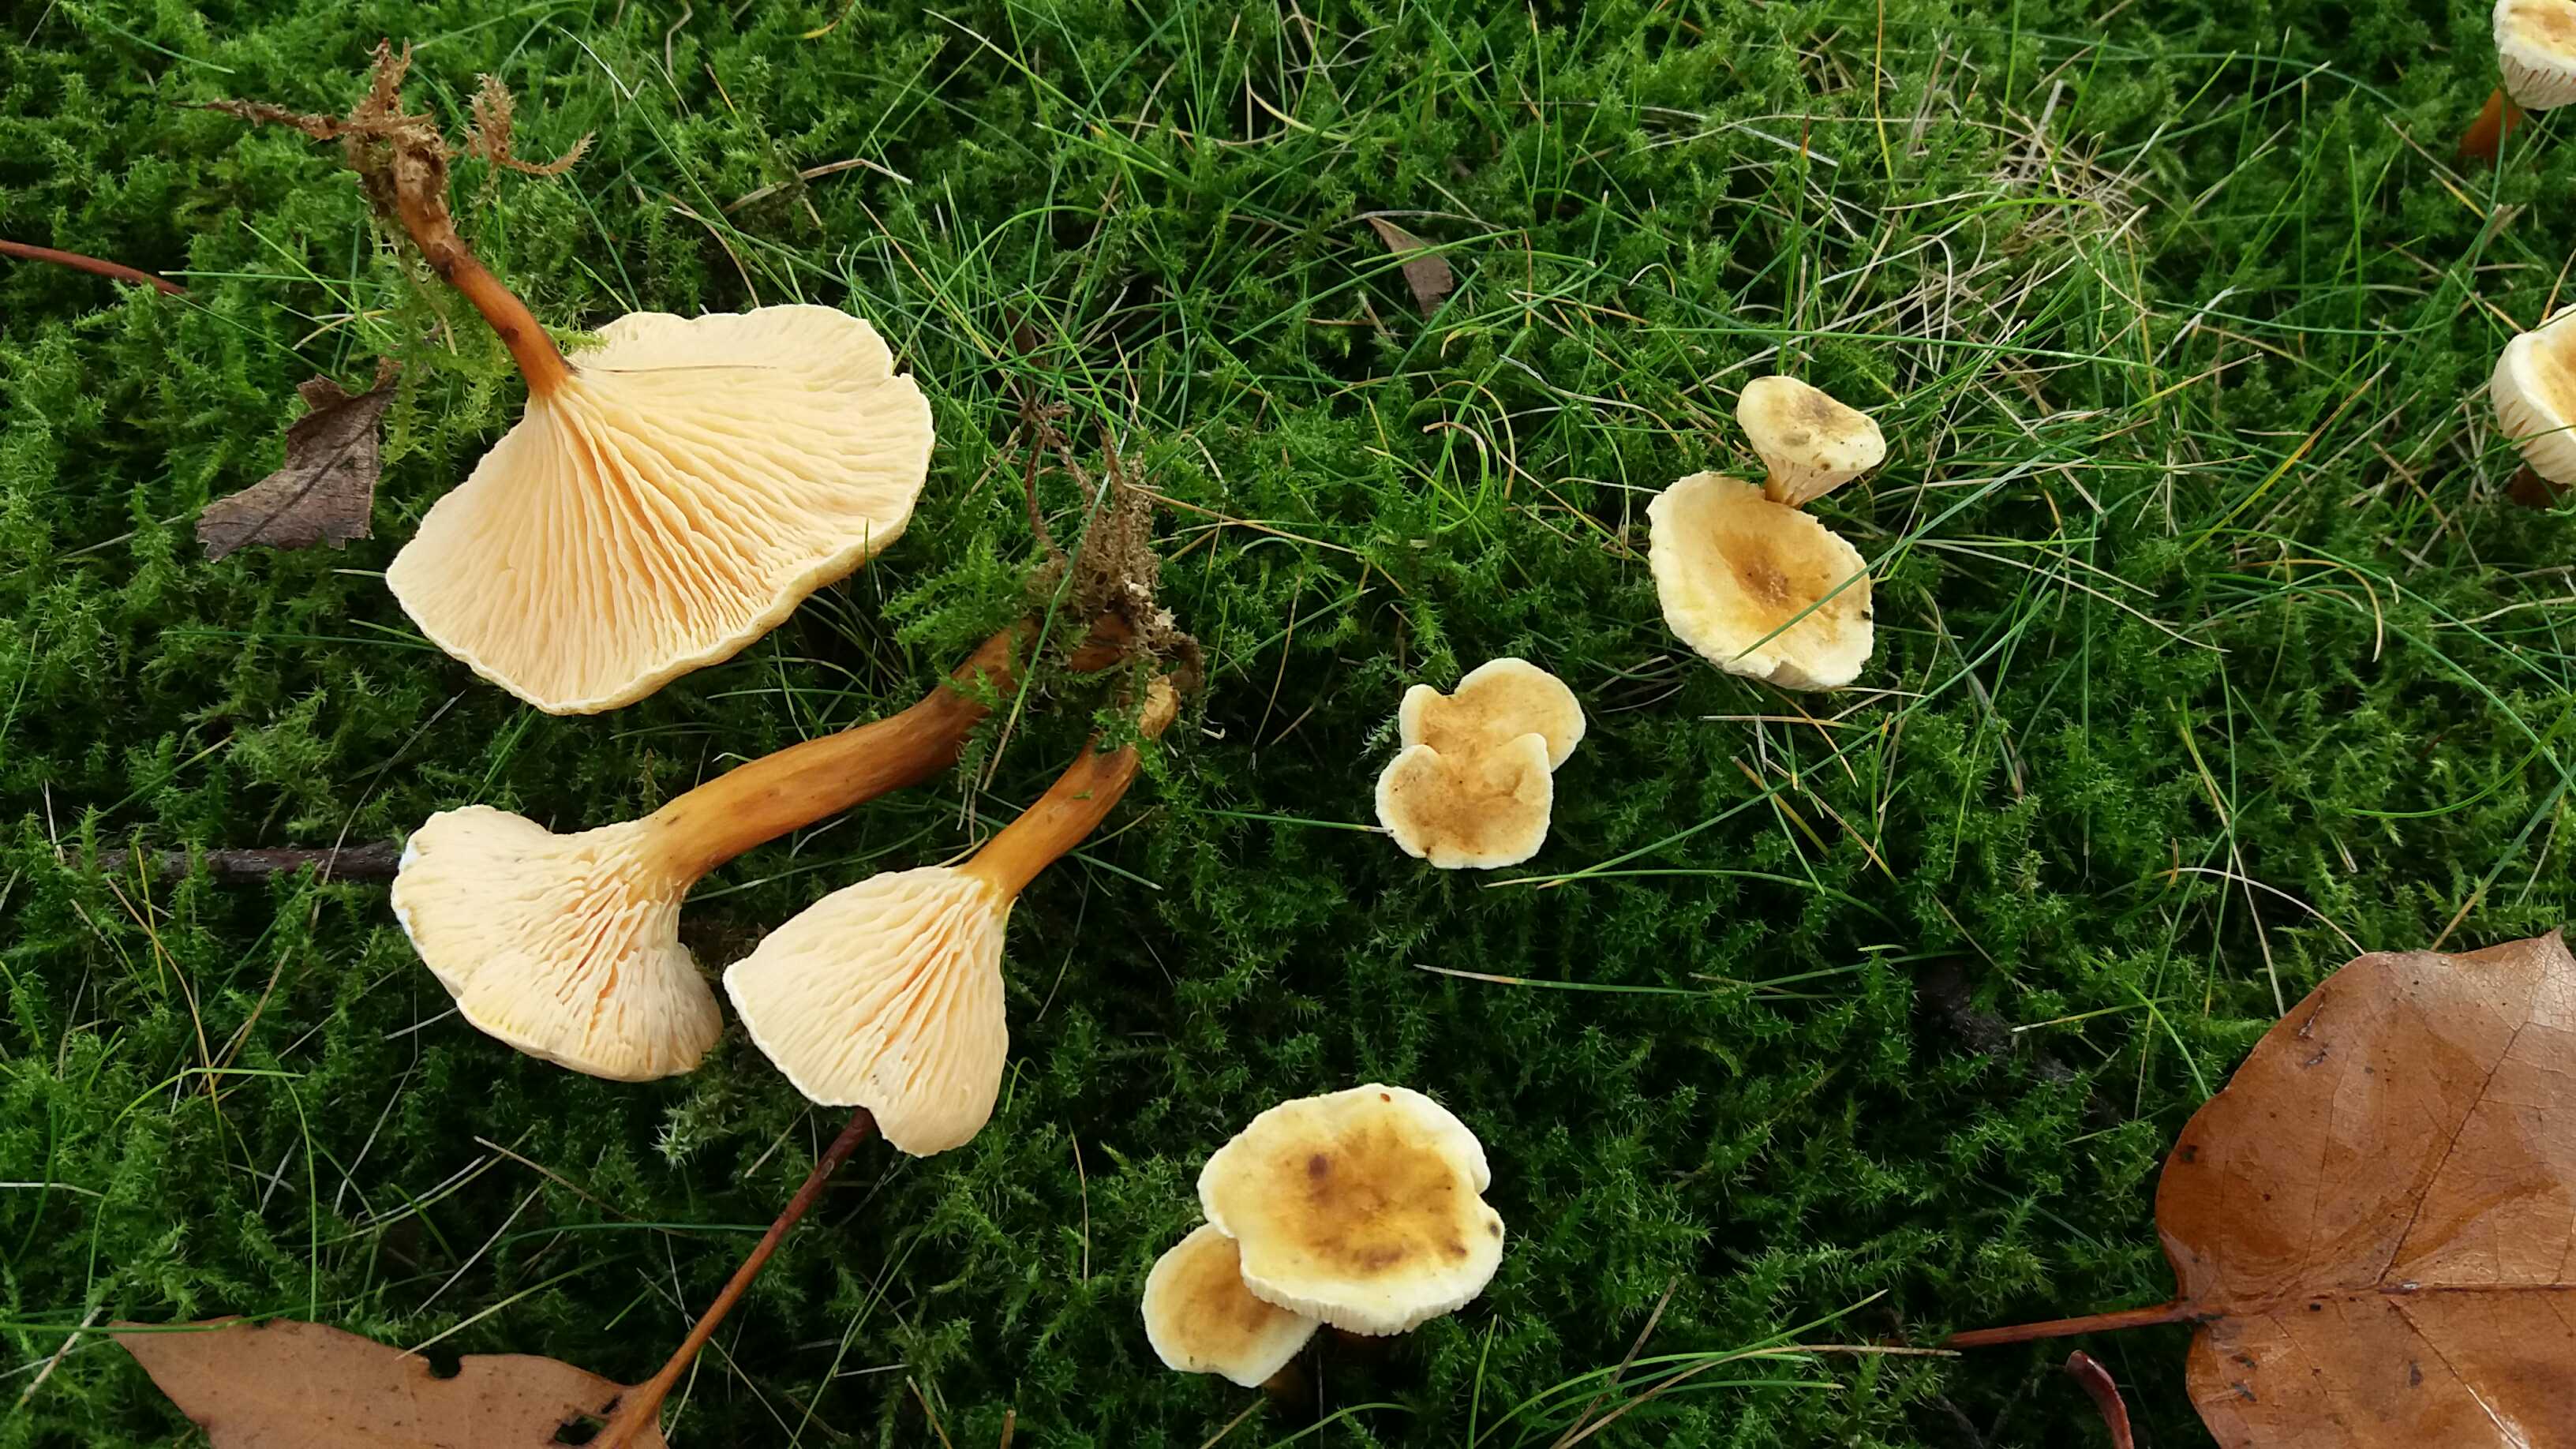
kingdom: Fungi
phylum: Basidiomycota
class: Agaricomycetes
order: Boletales
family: Hygrophoropsidaceae
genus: Hygrophoropsis
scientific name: Hygrophoropsis aurantiaca
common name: almindelig orangekantarel
